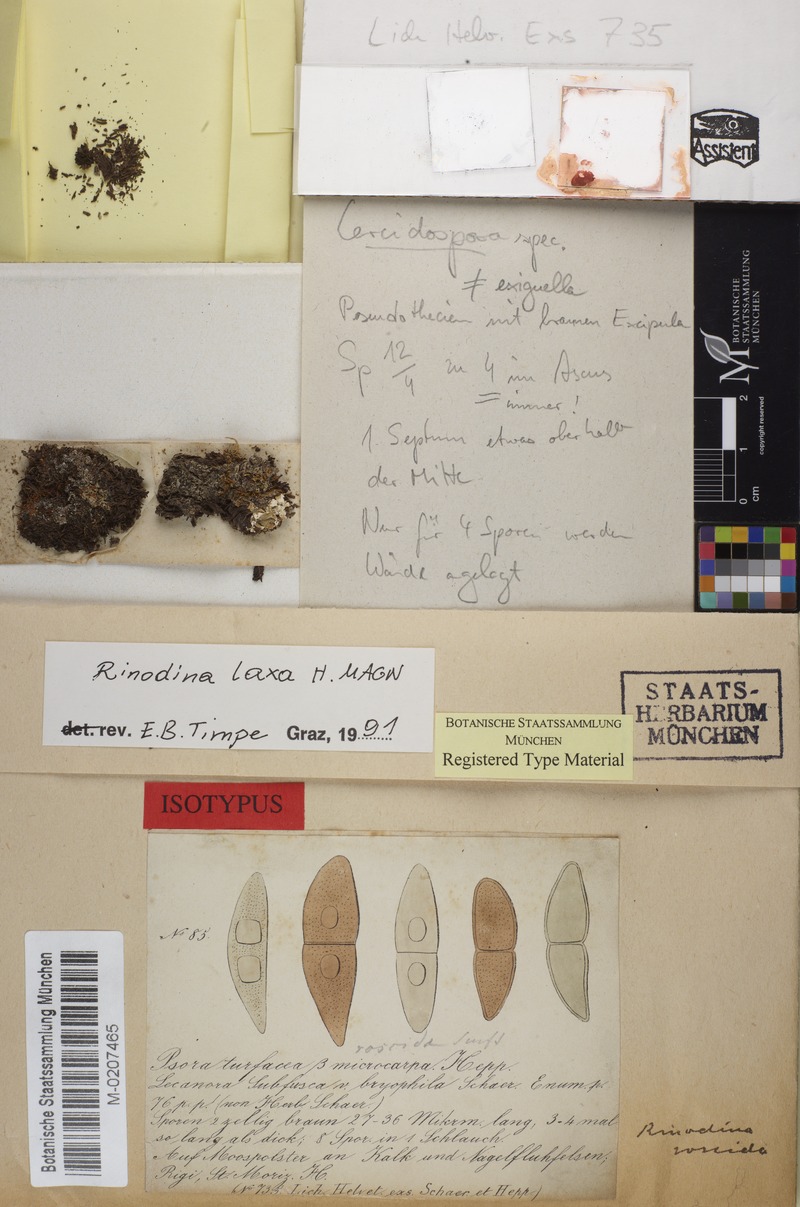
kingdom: Fungi
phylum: Ascomycota
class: Lecanoromycetes
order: Caliciales
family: Physciaceae
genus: Rinodina
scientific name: Rinodina turfacea
